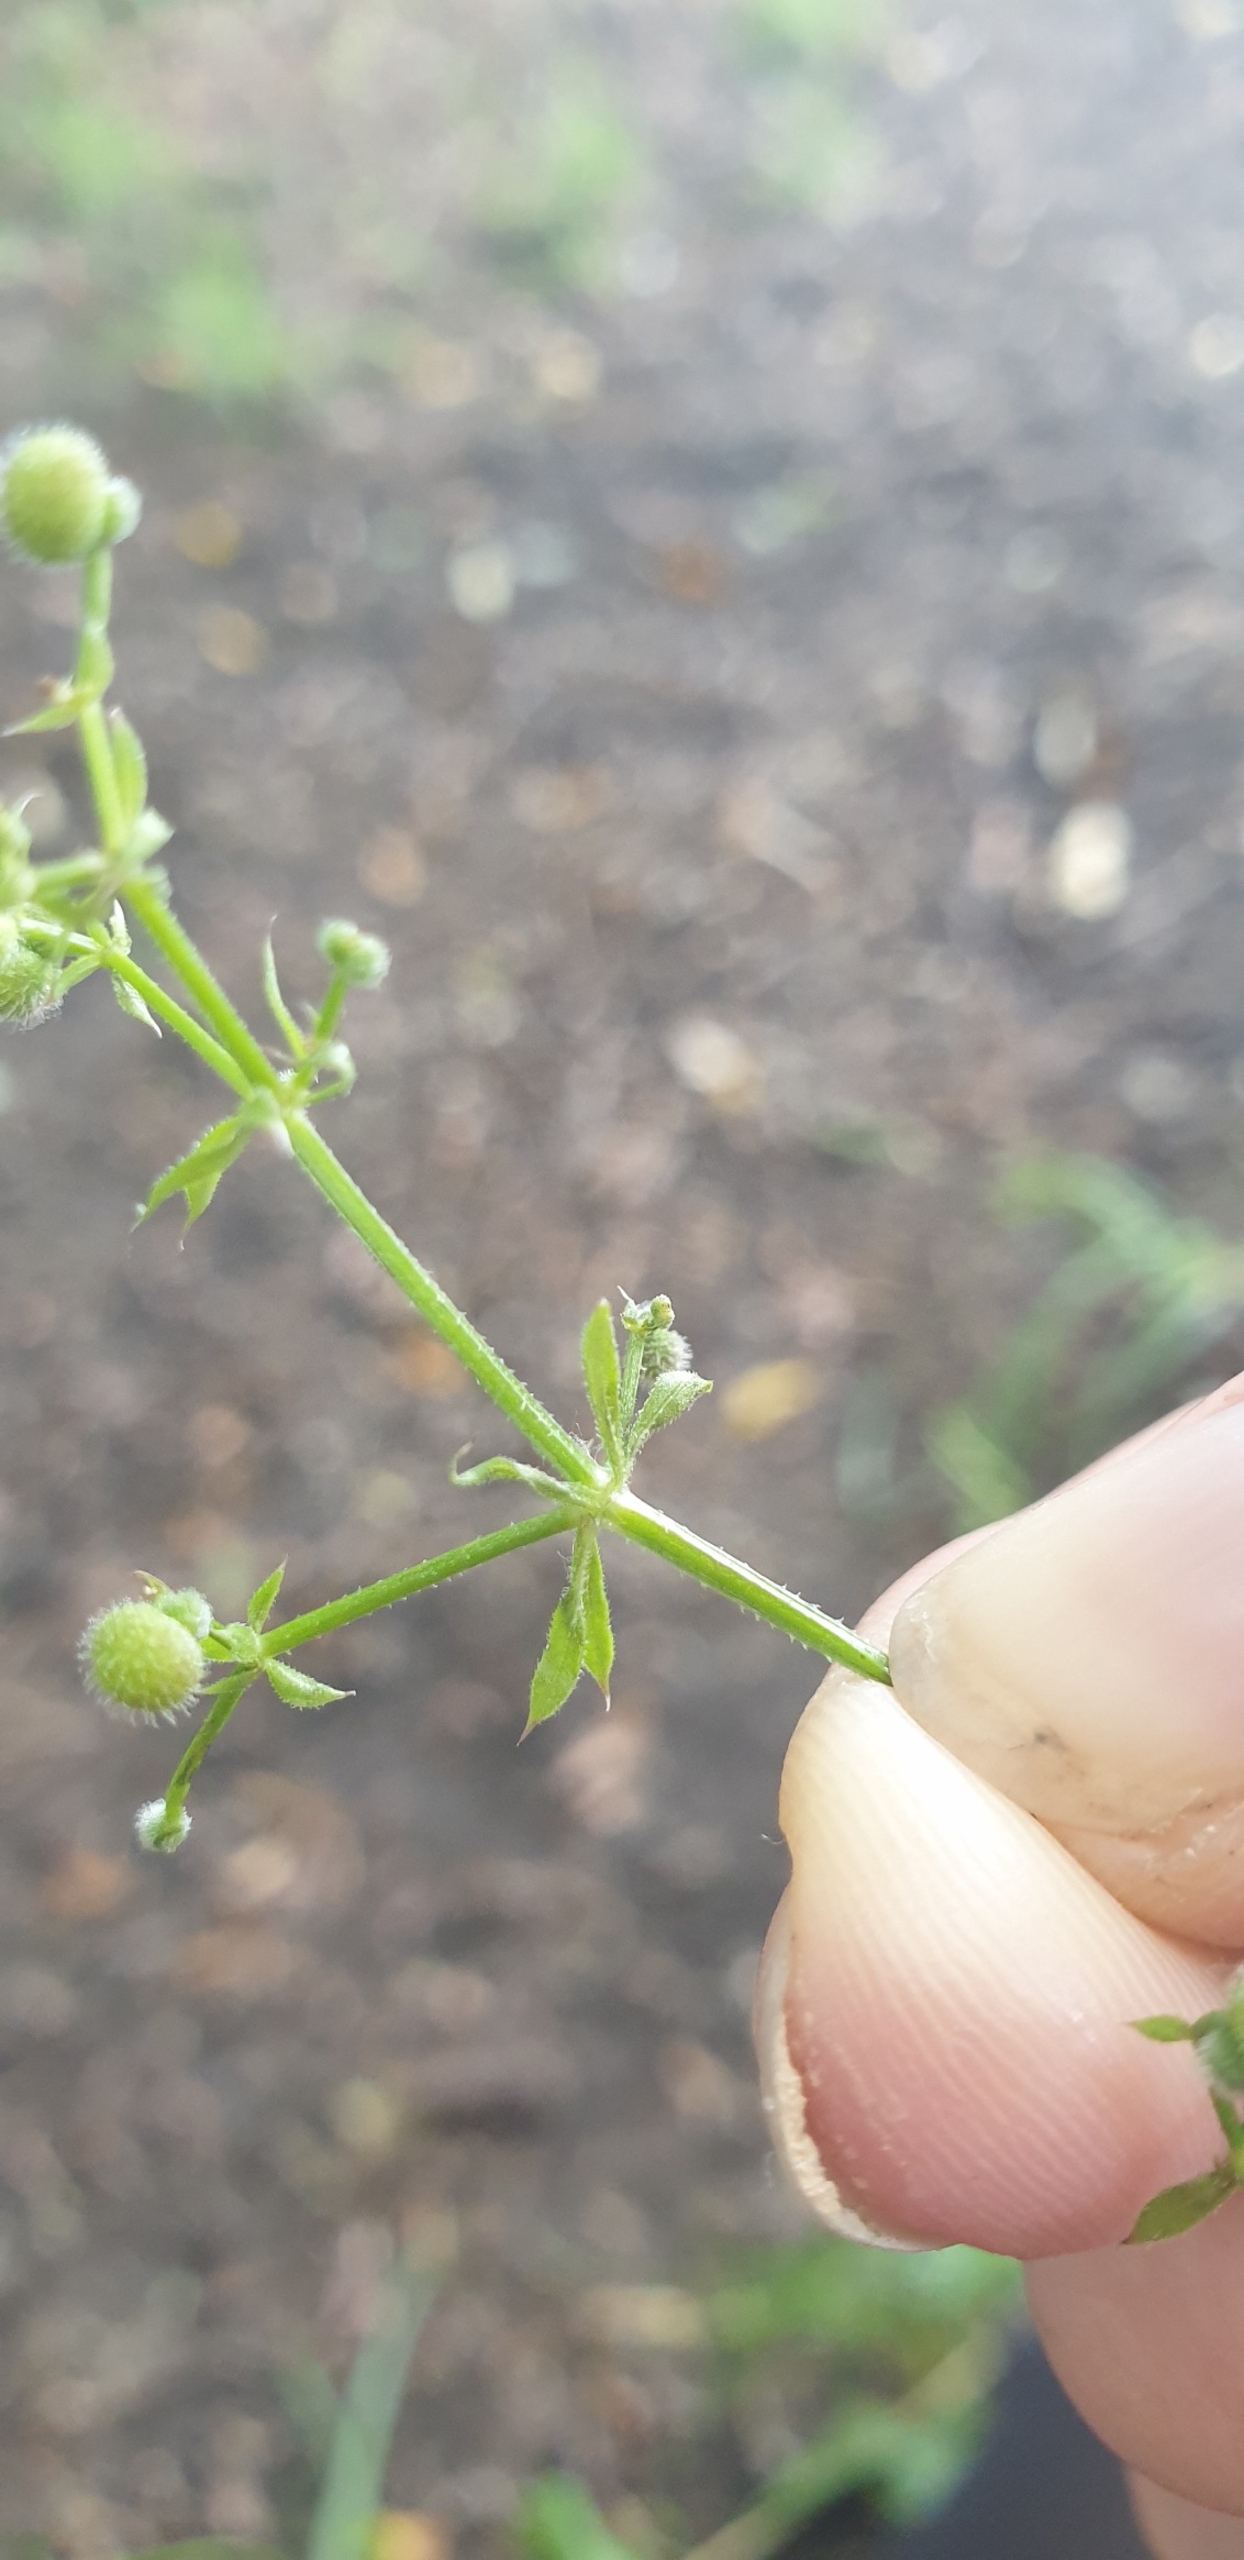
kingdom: Plantae
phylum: Tracheophyta
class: Magnoliopsida
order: Gentianales
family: Rubiaceae
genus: Galium
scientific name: Galium aparine
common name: Burre-snerre
